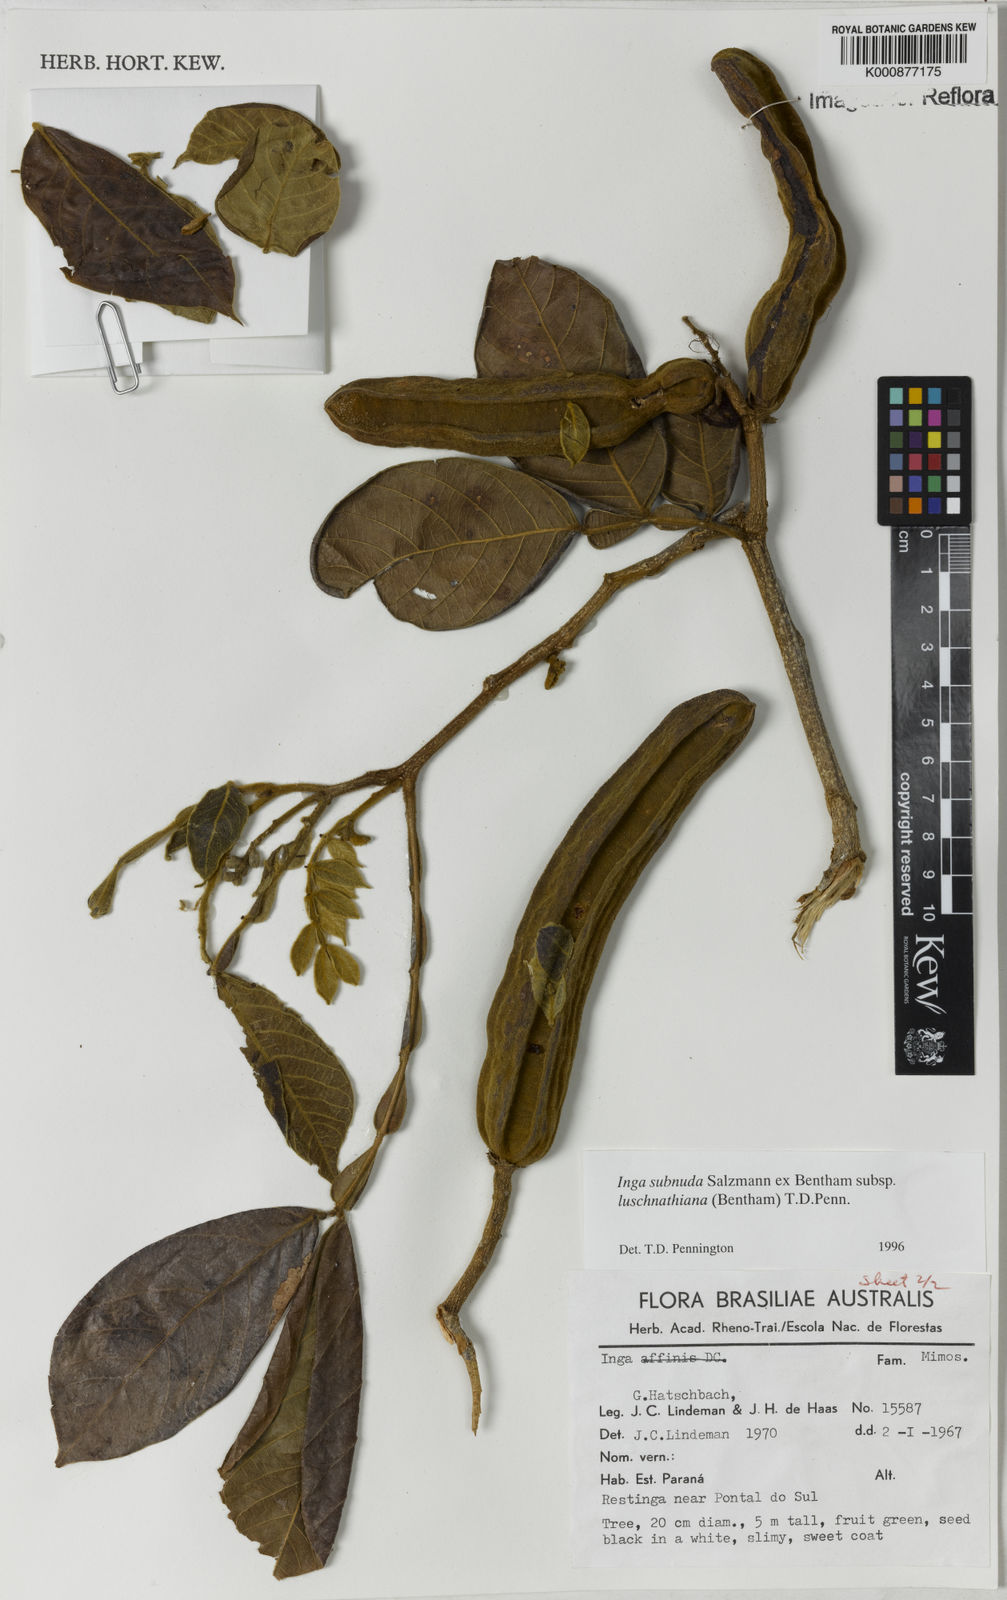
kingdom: Plantae
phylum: Tracheophyta
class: Magnoliopsida
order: Fabales
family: Fabaceae
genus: Inga
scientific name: Inga subnuda
